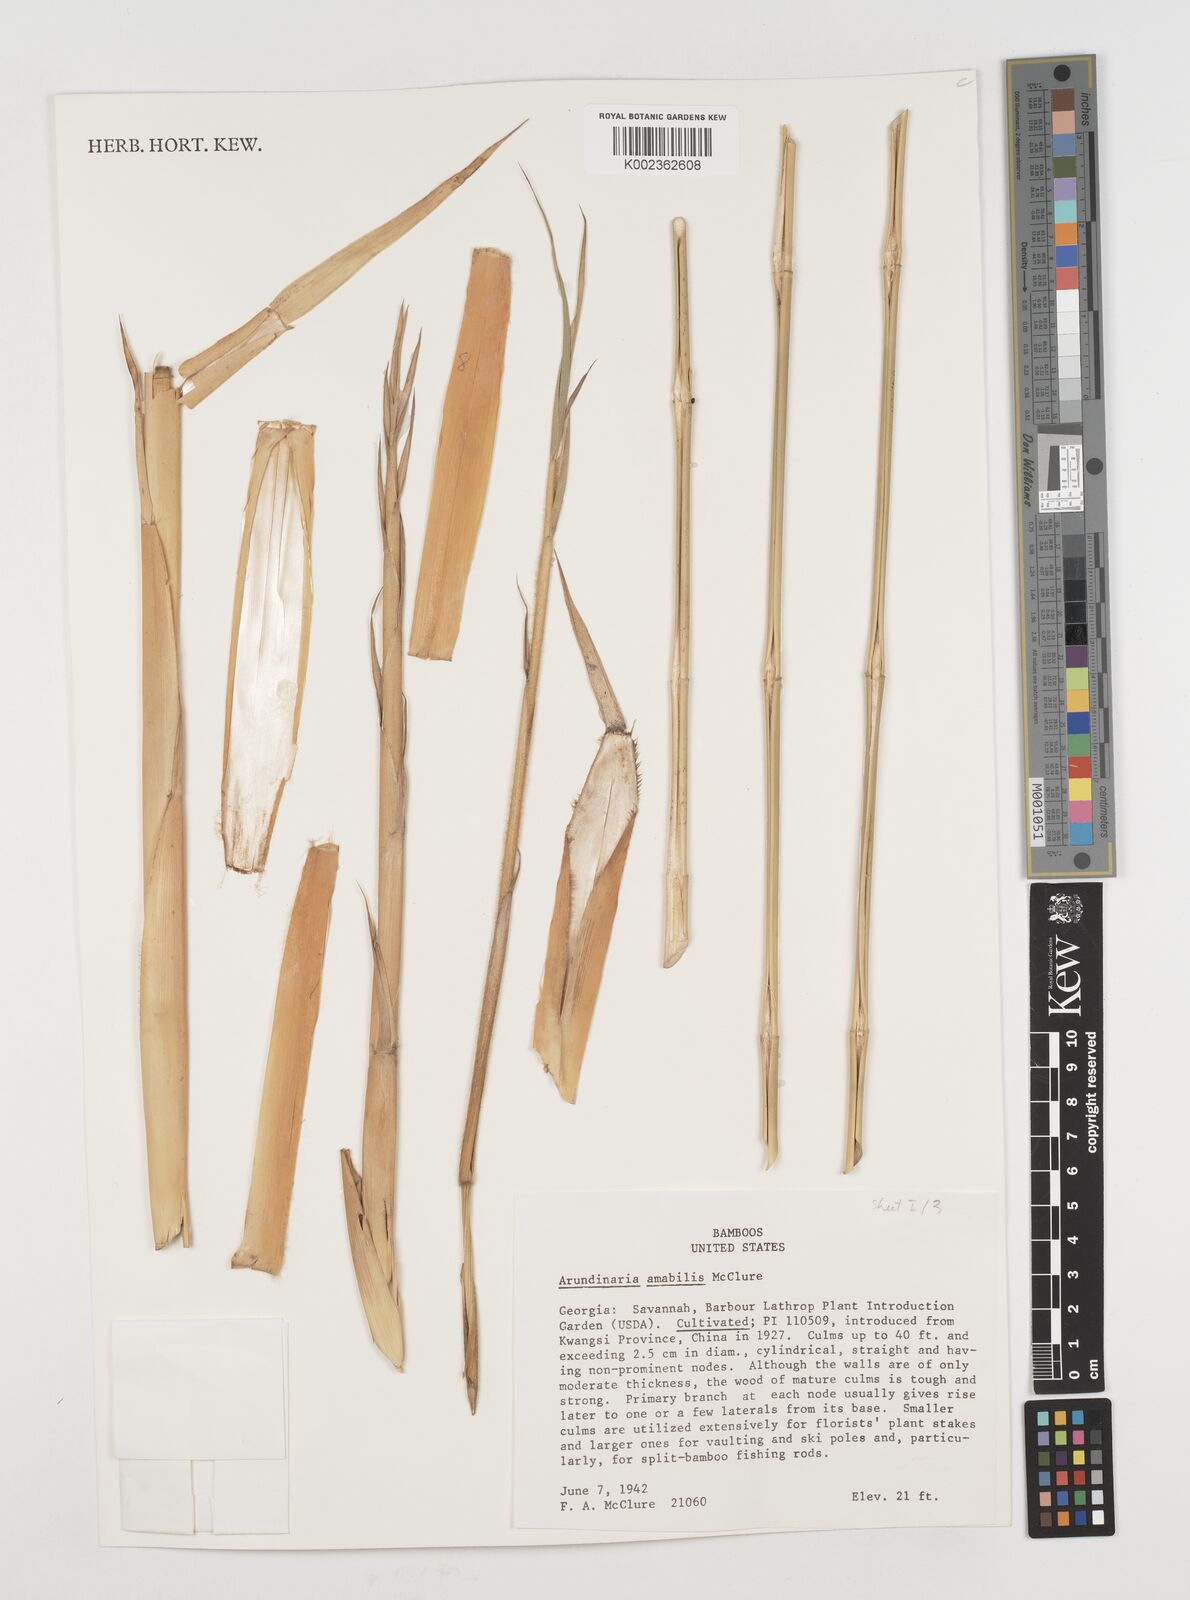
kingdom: Plantae
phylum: Tracheophyta
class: Liliopsida
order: Poales
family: Poaceae
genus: Pseudosasa
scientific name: Pseudosasa amabilis
